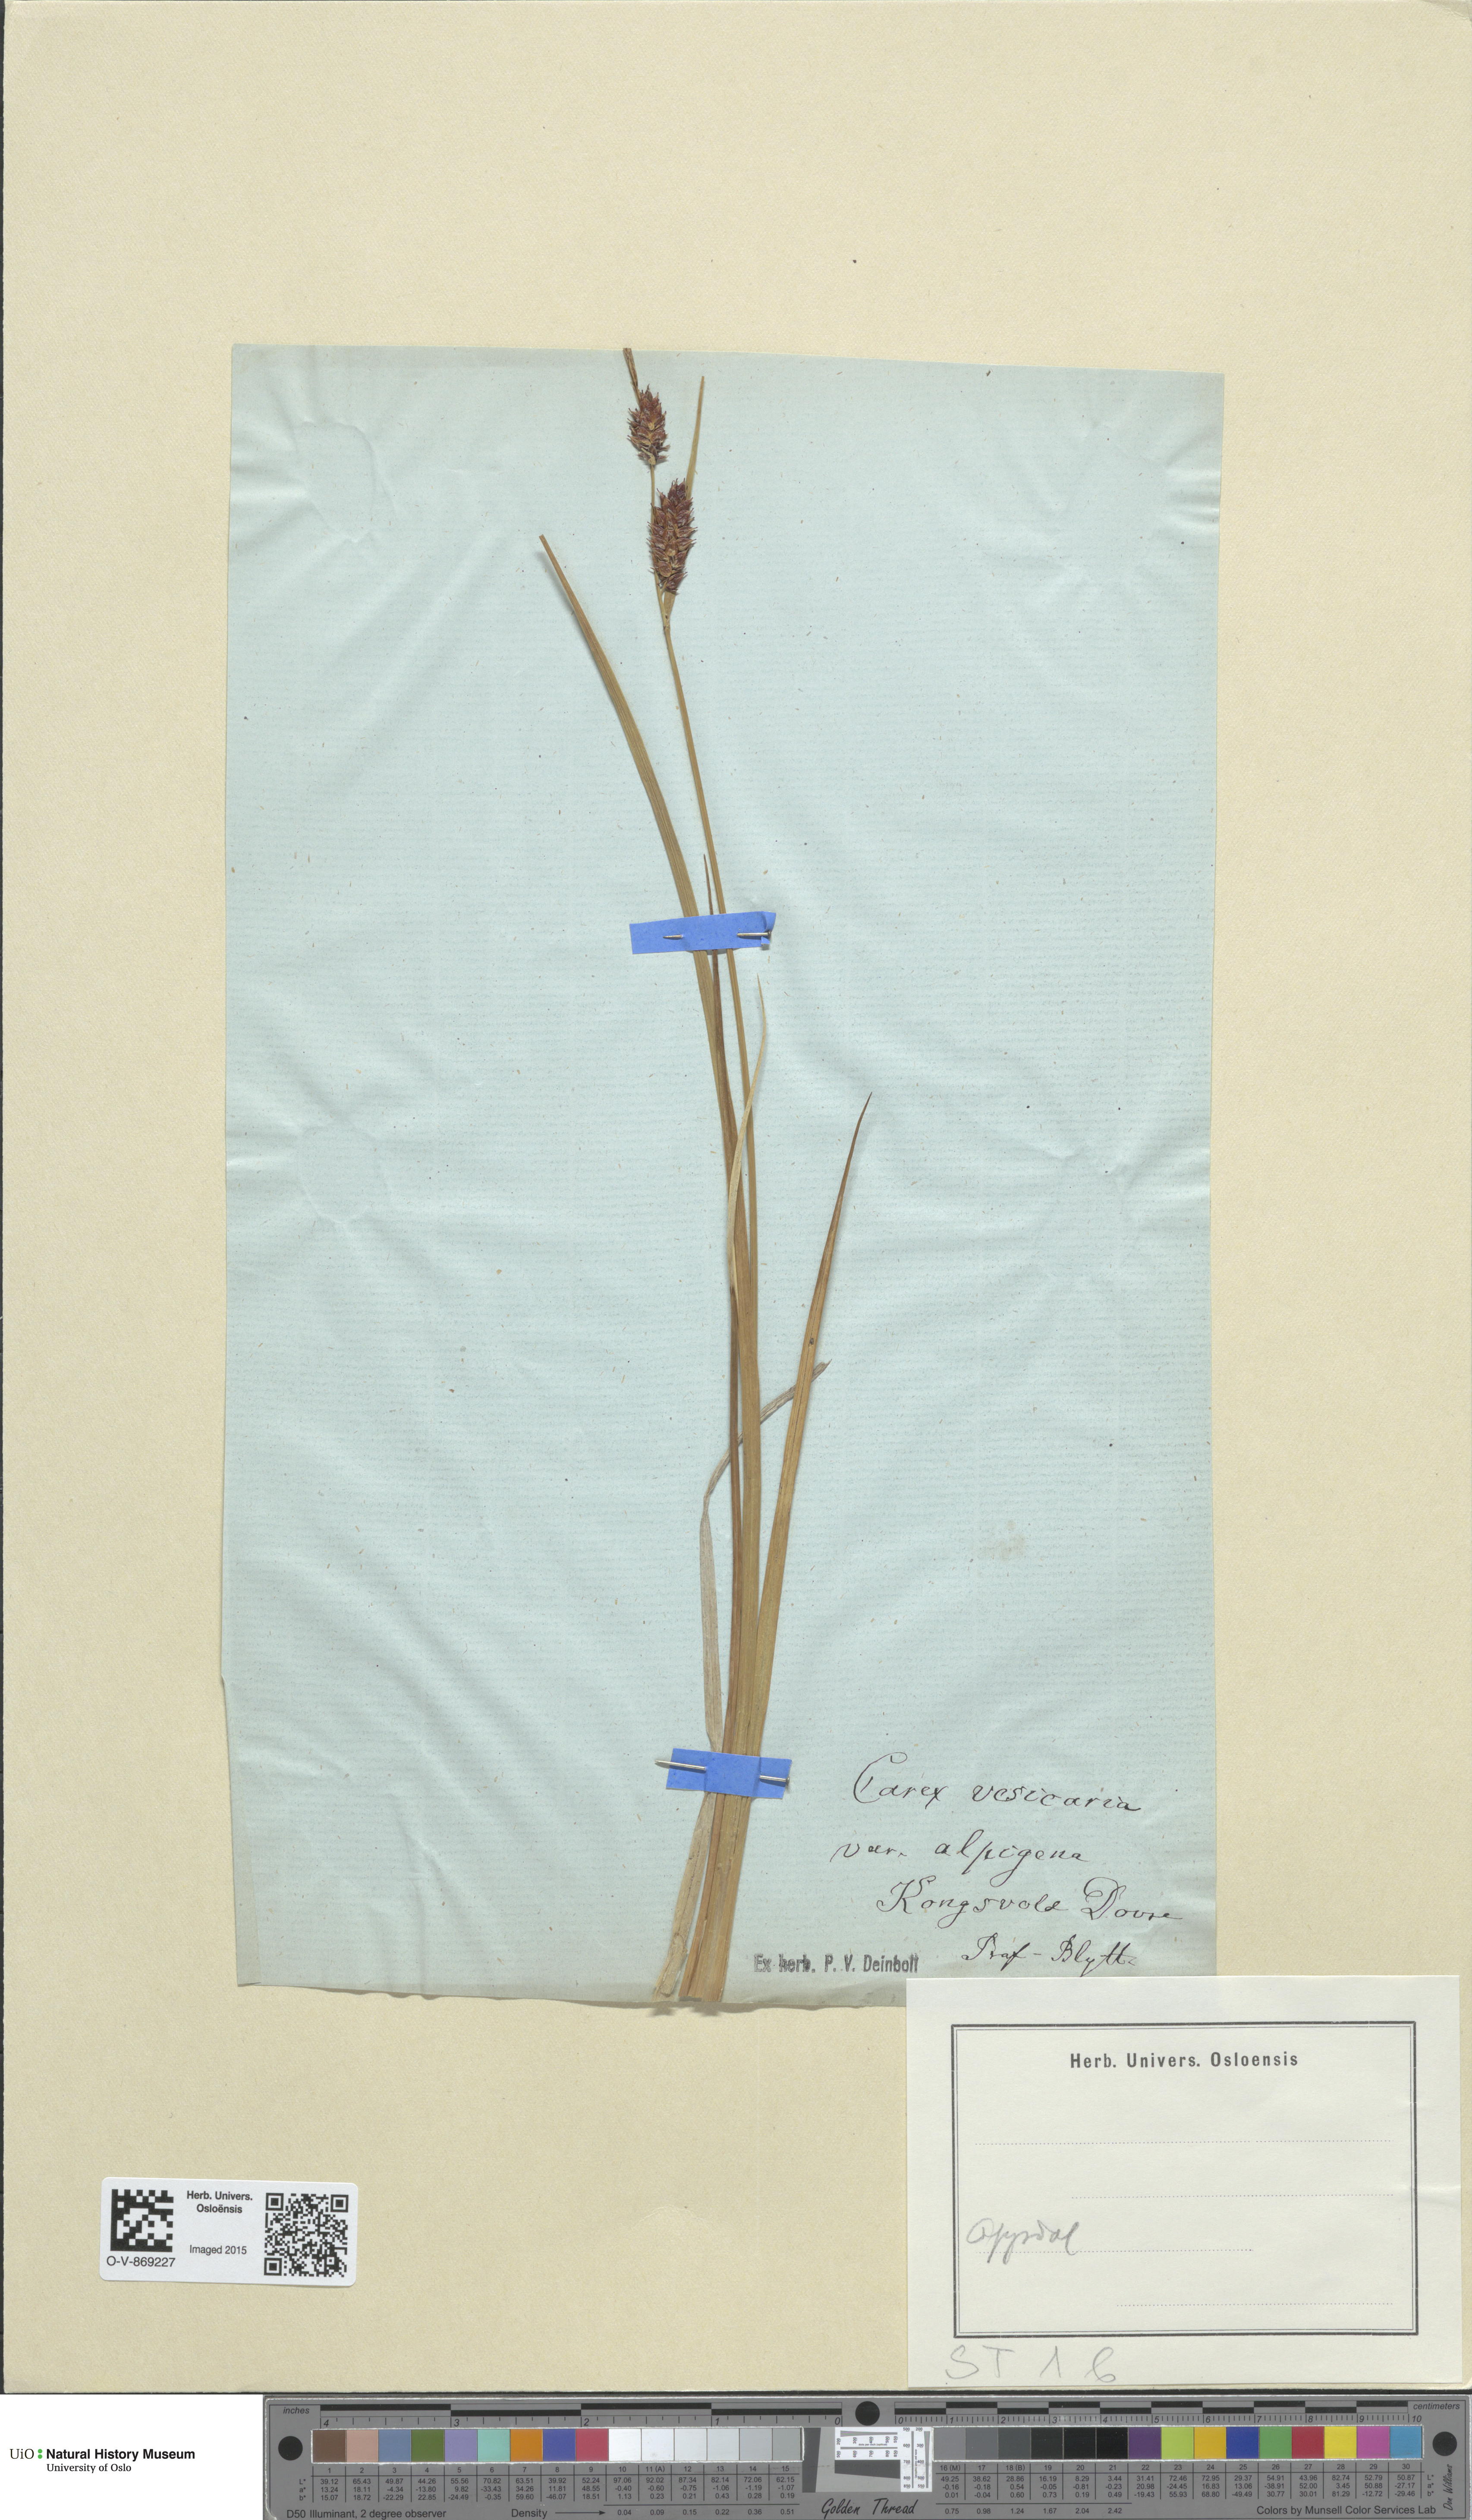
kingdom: Plantae
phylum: Tracheophyta
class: Liliopsida
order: Poales
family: Cyperaceae
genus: Carex
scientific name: Carex grahamii
